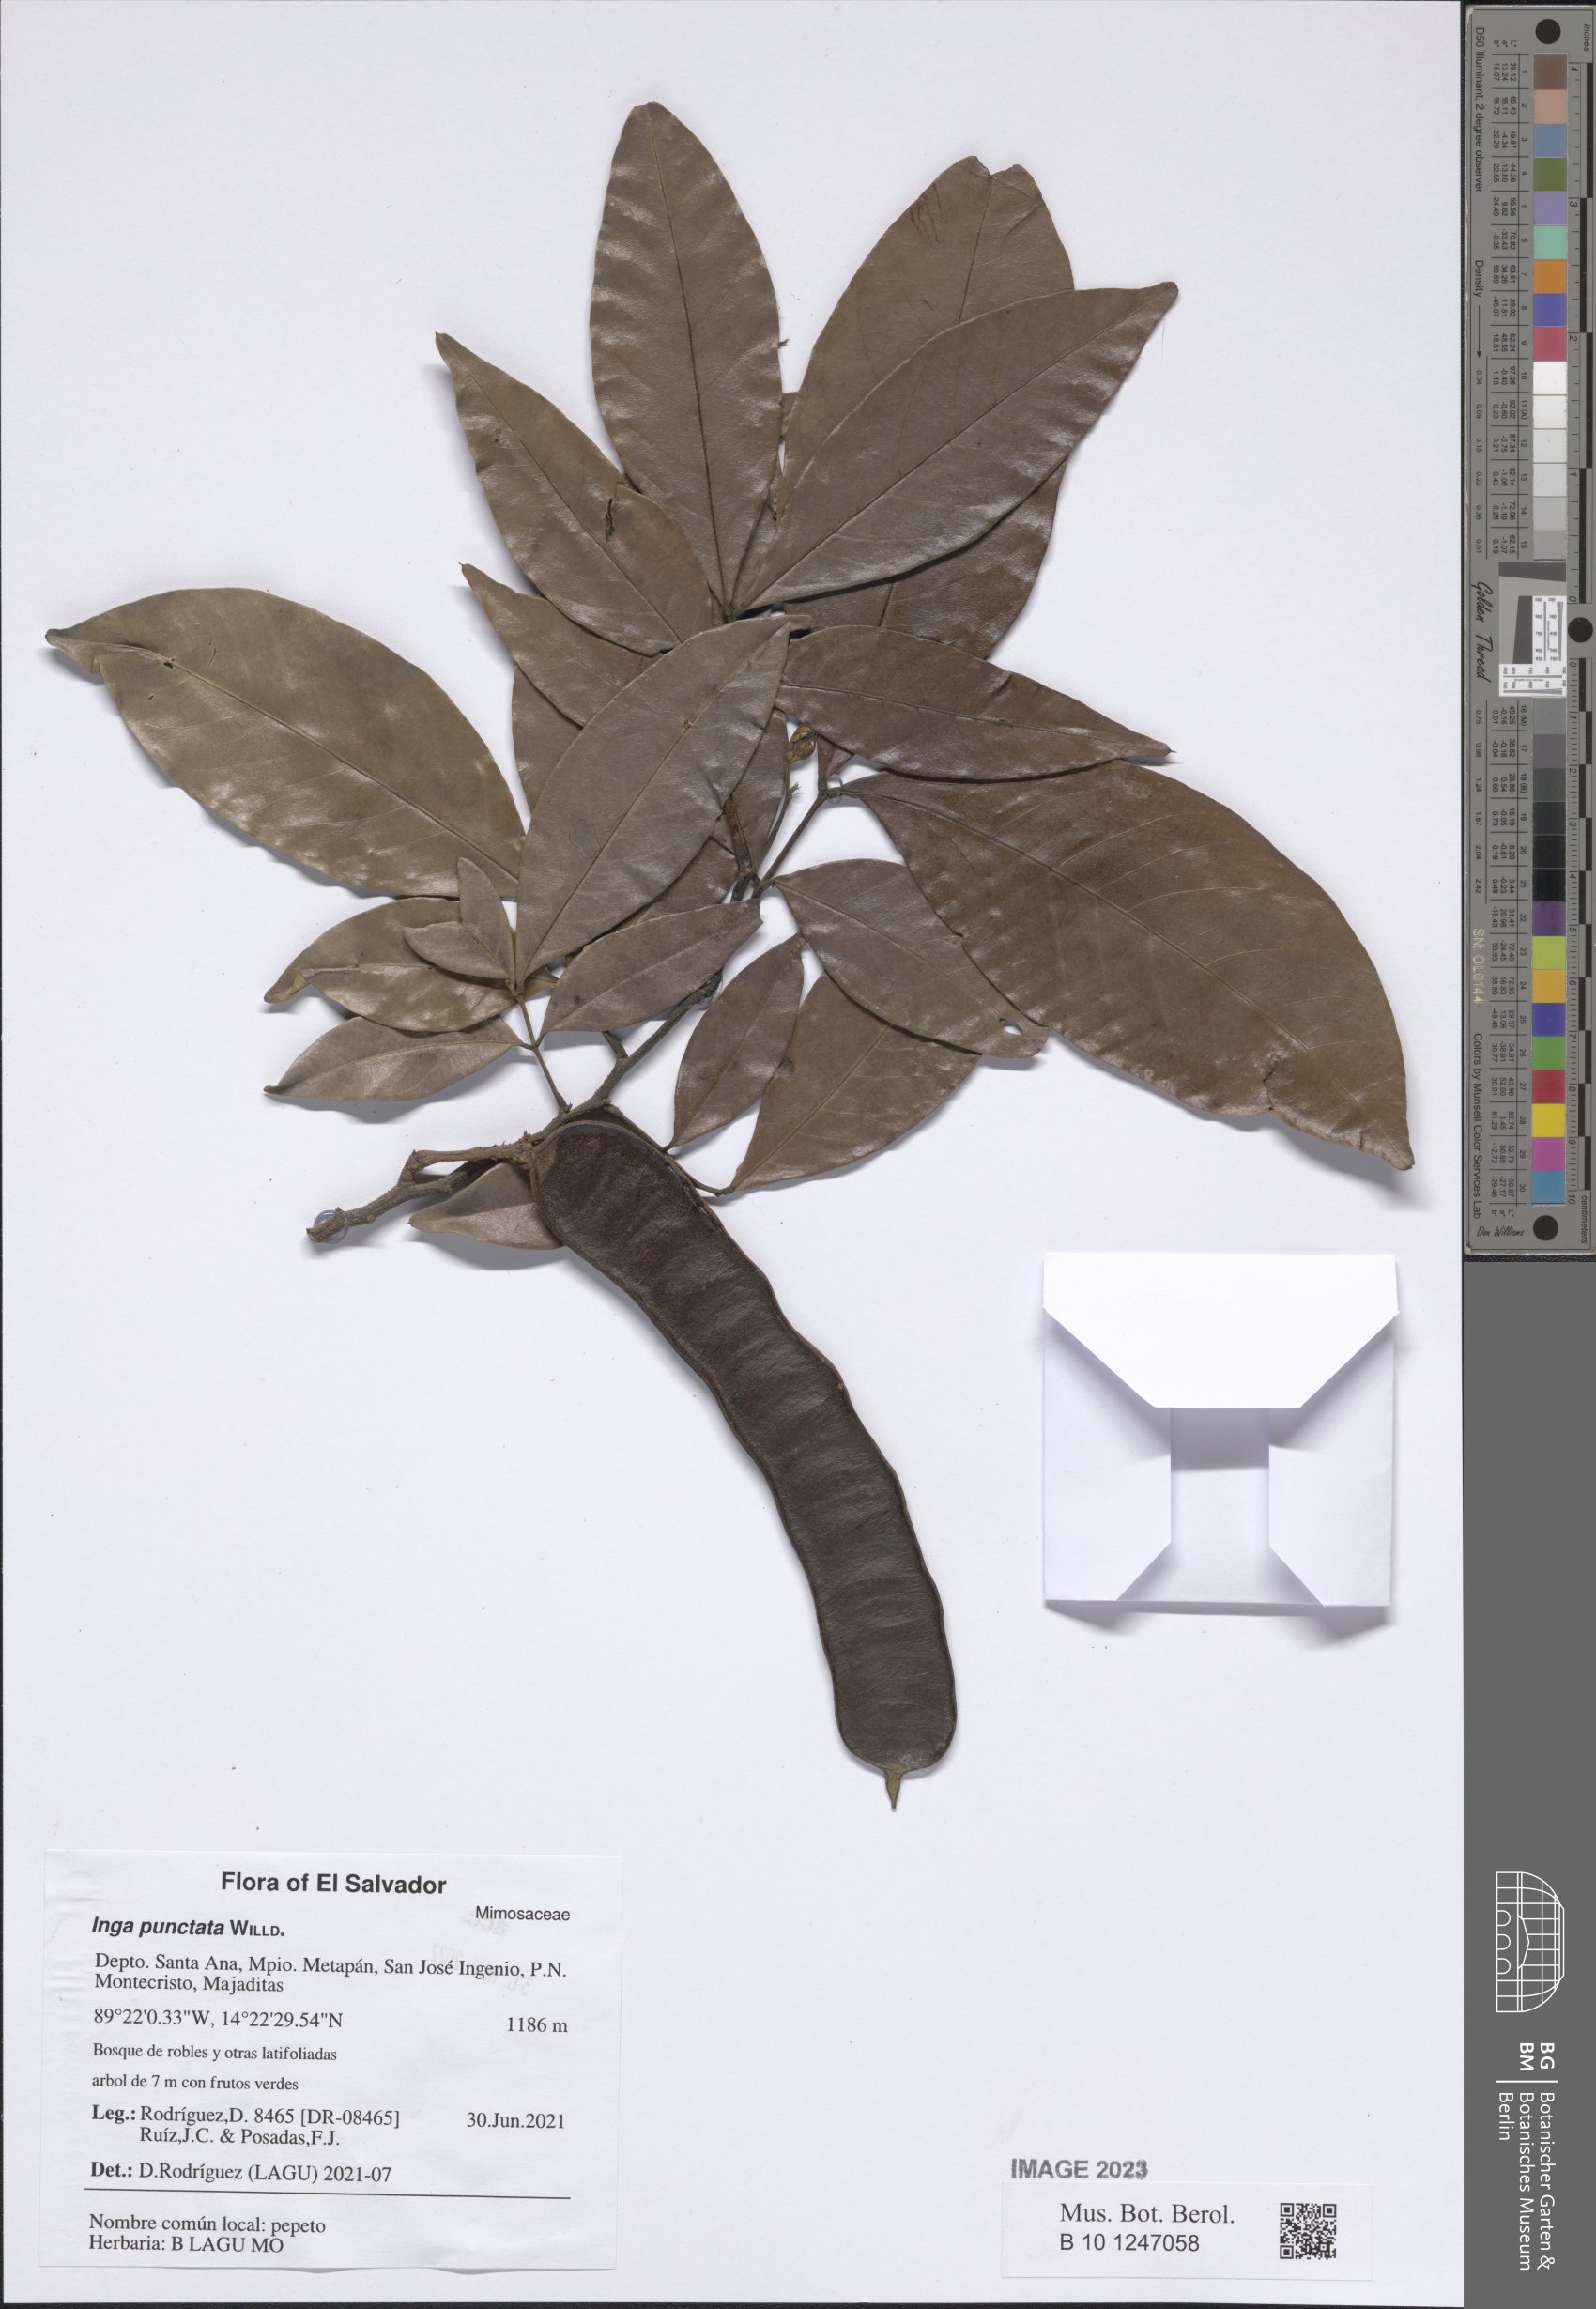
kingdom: Plantae
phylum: Tracheophyta
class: Magnoliopsida
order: Fabales
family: Fabaceae
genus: Inga
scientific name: Inga punctata
